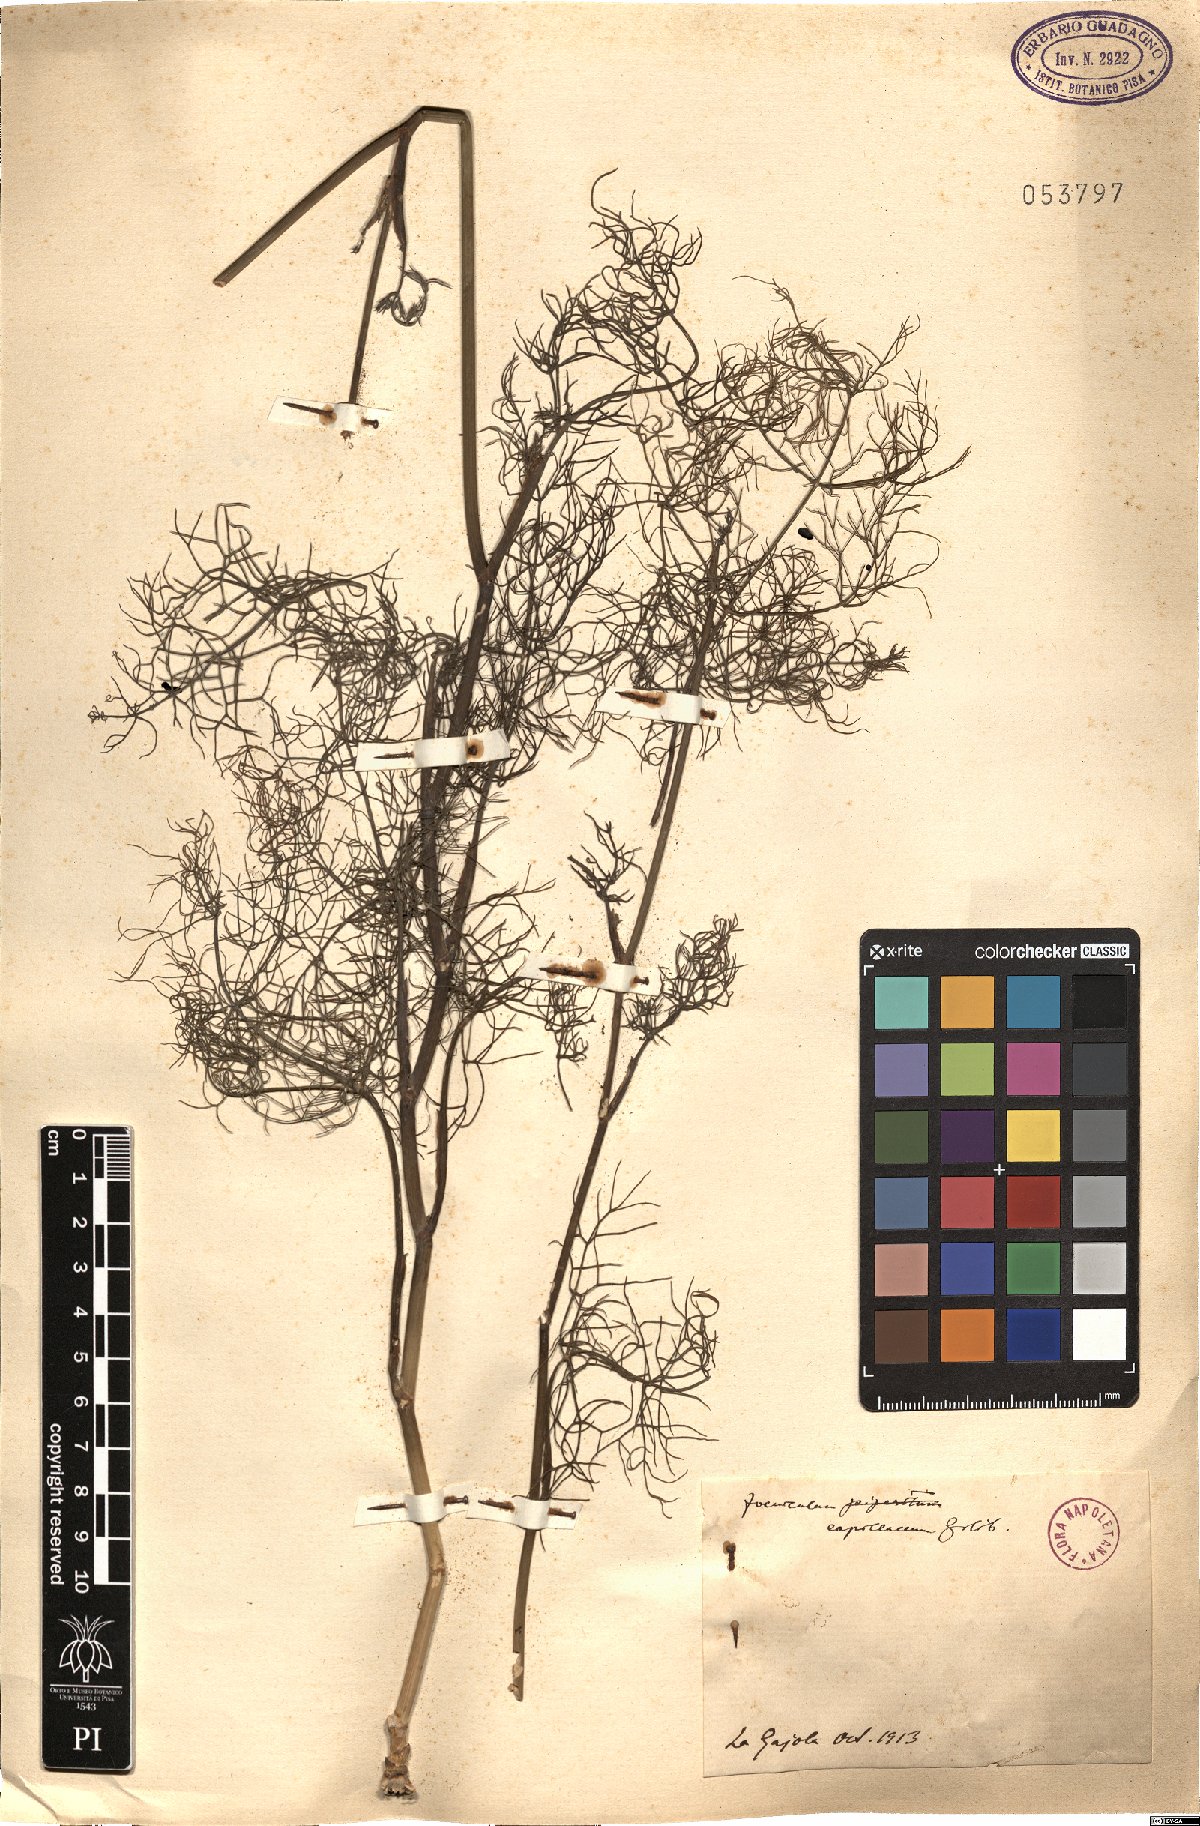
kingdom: Plantae
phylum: Tracheophyta
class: Magnoliopsida
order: Apiales
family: Apiaceae
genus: Foeniculum
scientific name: Foeniculum vulgare
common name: Fennel
